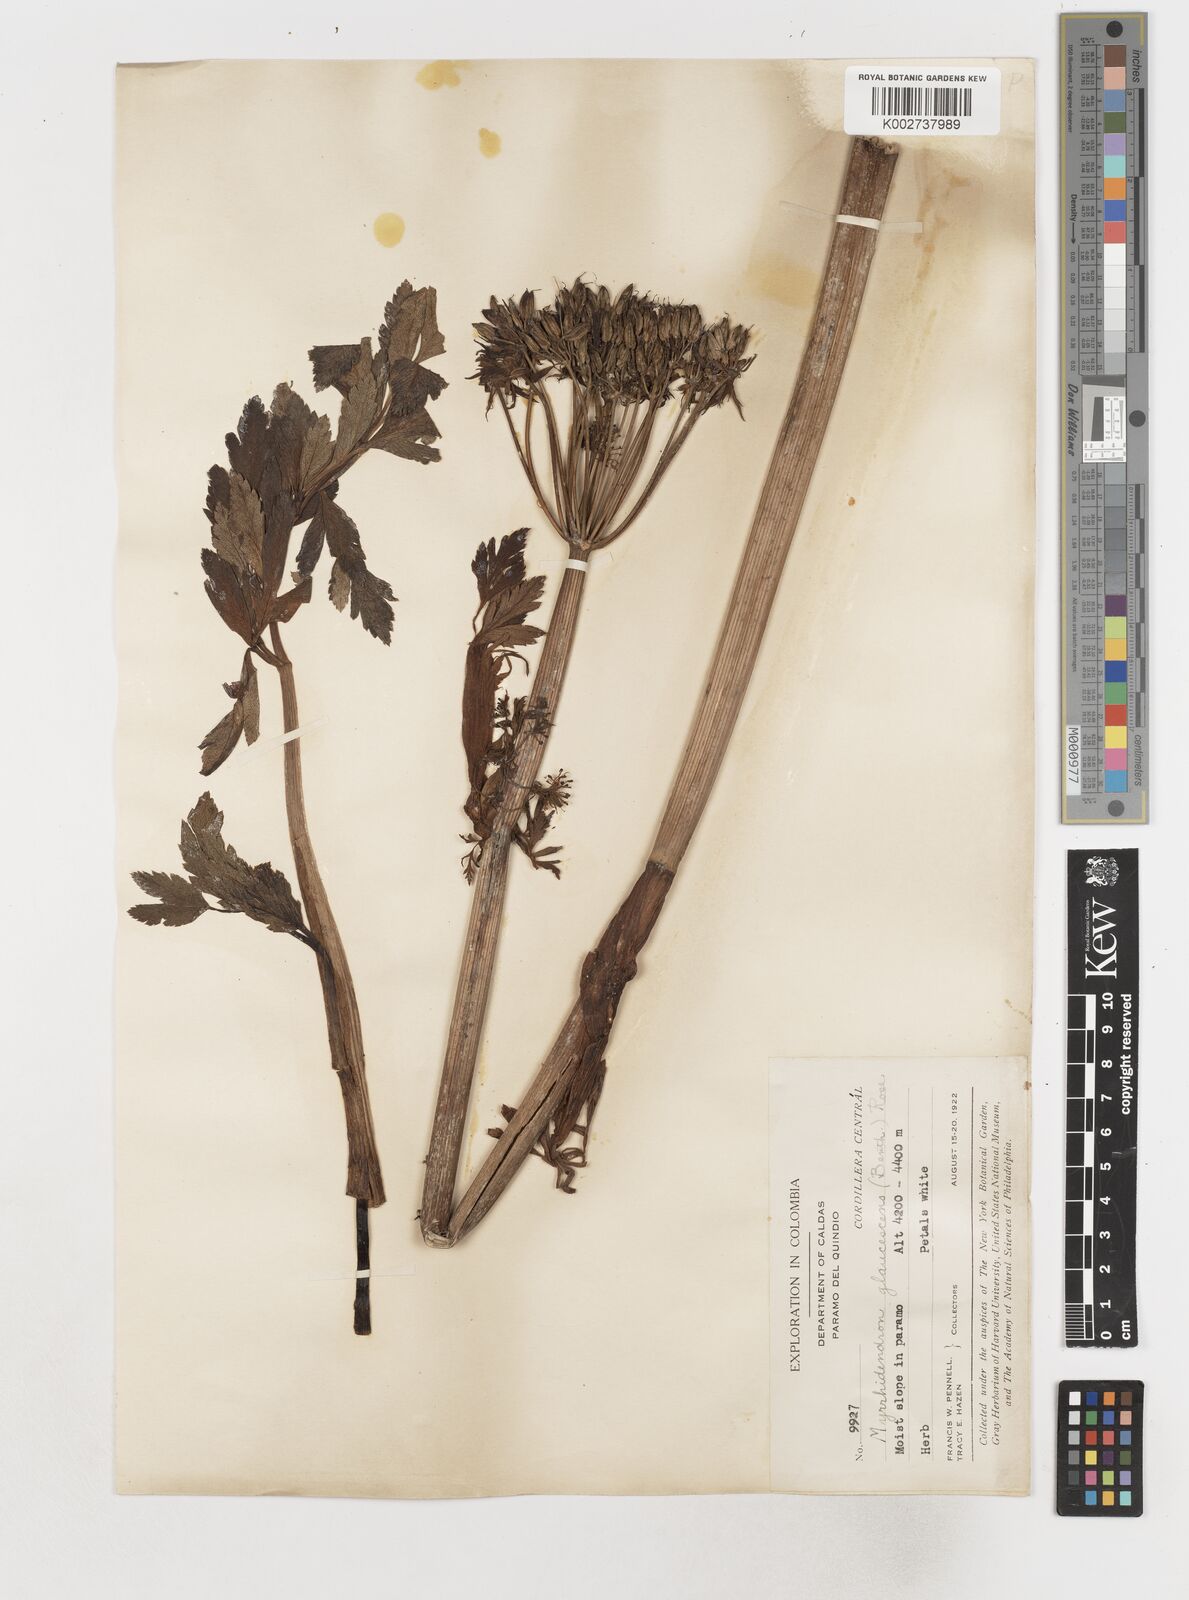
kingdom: Plantae
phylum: Tracheophyta
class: Magnoliopsida
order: Apiales
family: Apiaceae
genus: Myrrhidendron
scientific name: Myrrhidendron glaucescens
